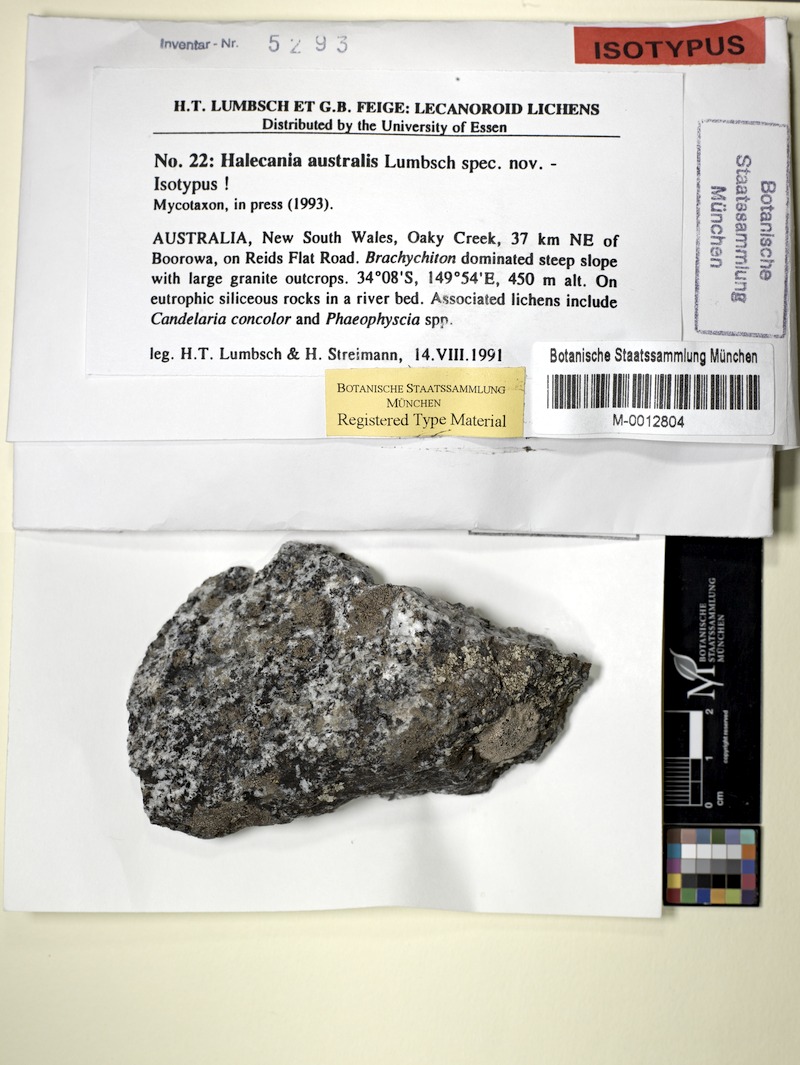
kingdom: Fungi
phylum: Ascomycota
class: Lecanoromycetes
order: Lecanorales
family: Ramalinaceae
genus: Lecania
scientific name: Lecania muelleriana
